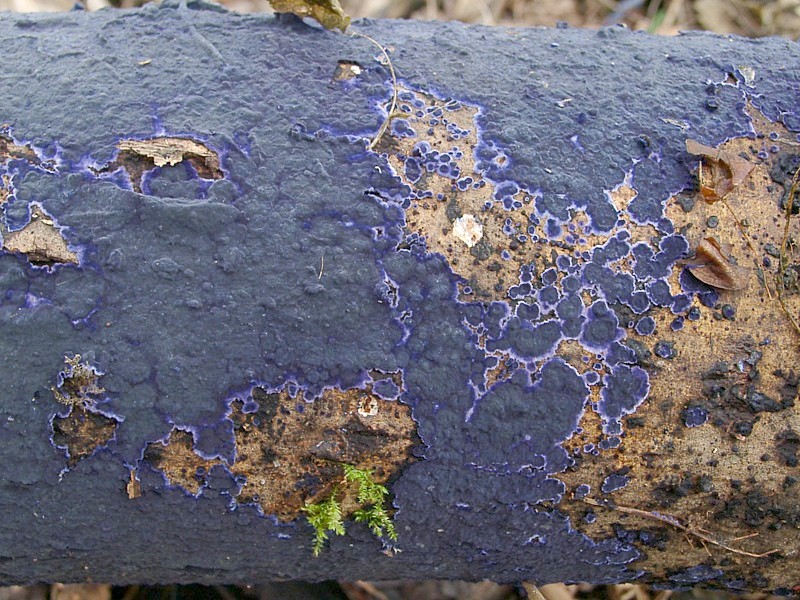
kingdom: Fungi
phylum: Basidiomycota
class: Agaricomycetes
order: Polyporales
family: Phanerochaetaceae
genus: Terana
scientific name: Terana caerulea
